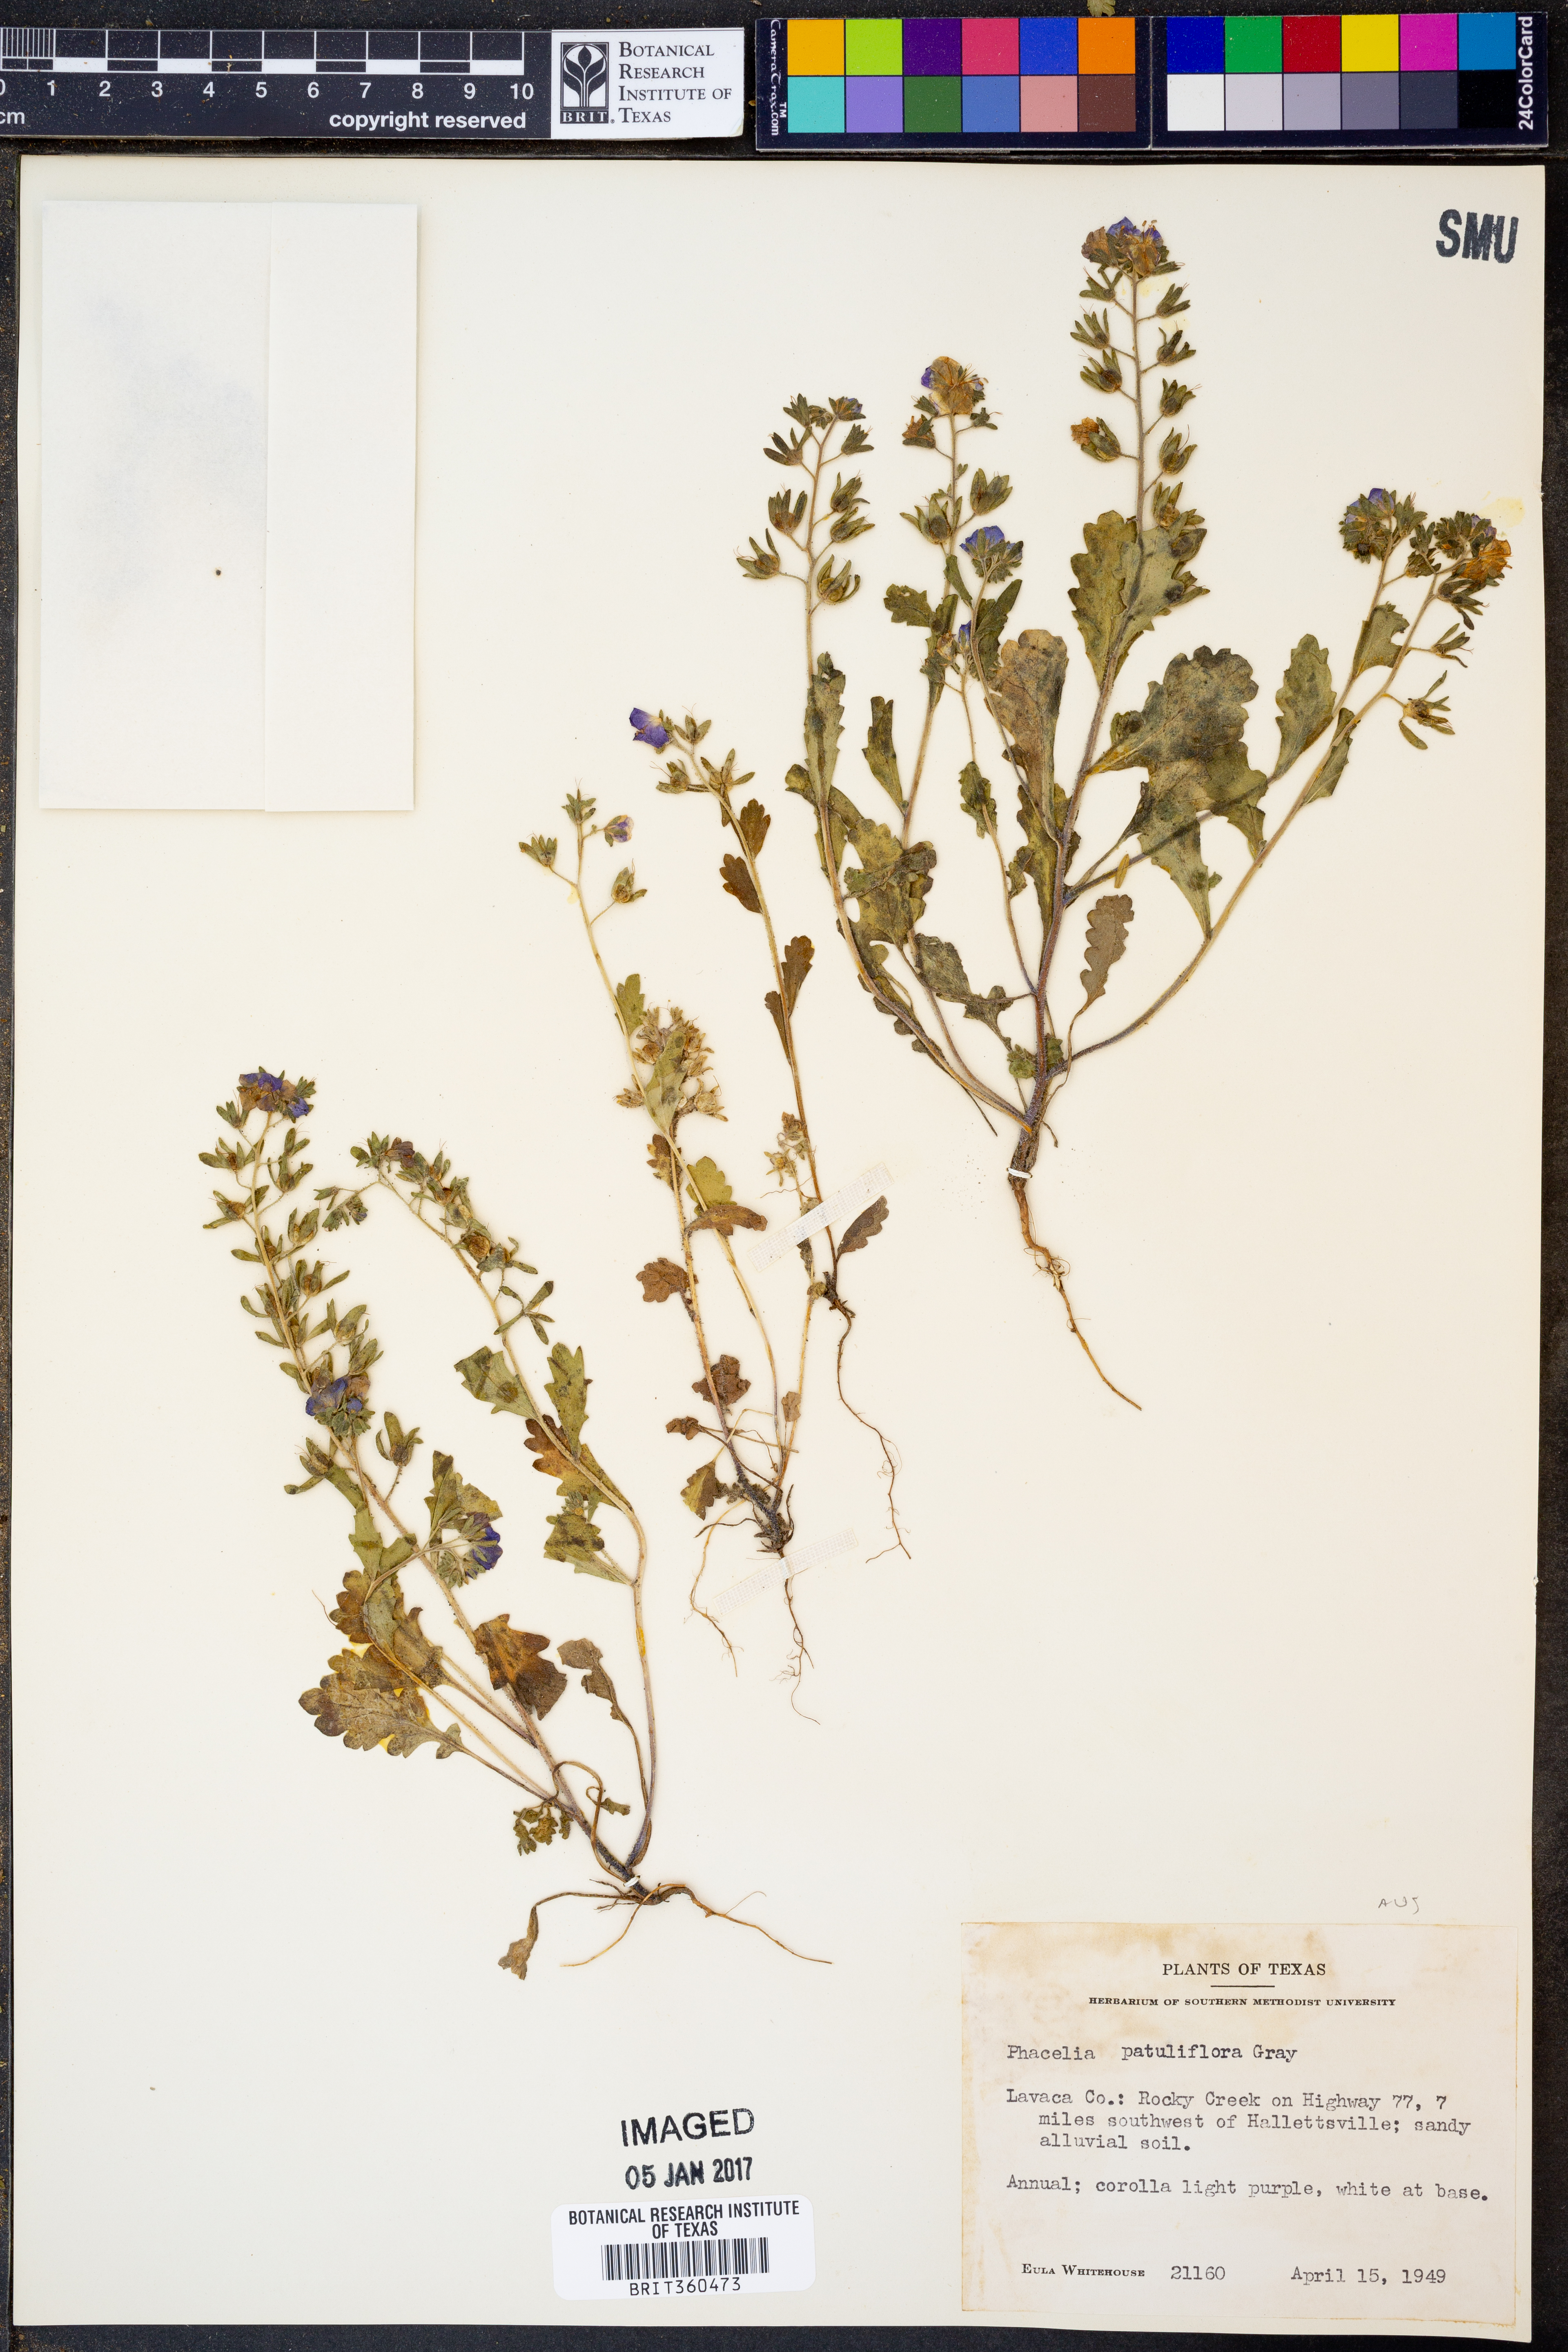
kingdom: Plantae
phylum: Tracheophyta
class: Magnoliopsida
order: Boraginales
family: Hydrophyllaceae
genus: Phacelia
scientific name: Phacelia patuliflora
